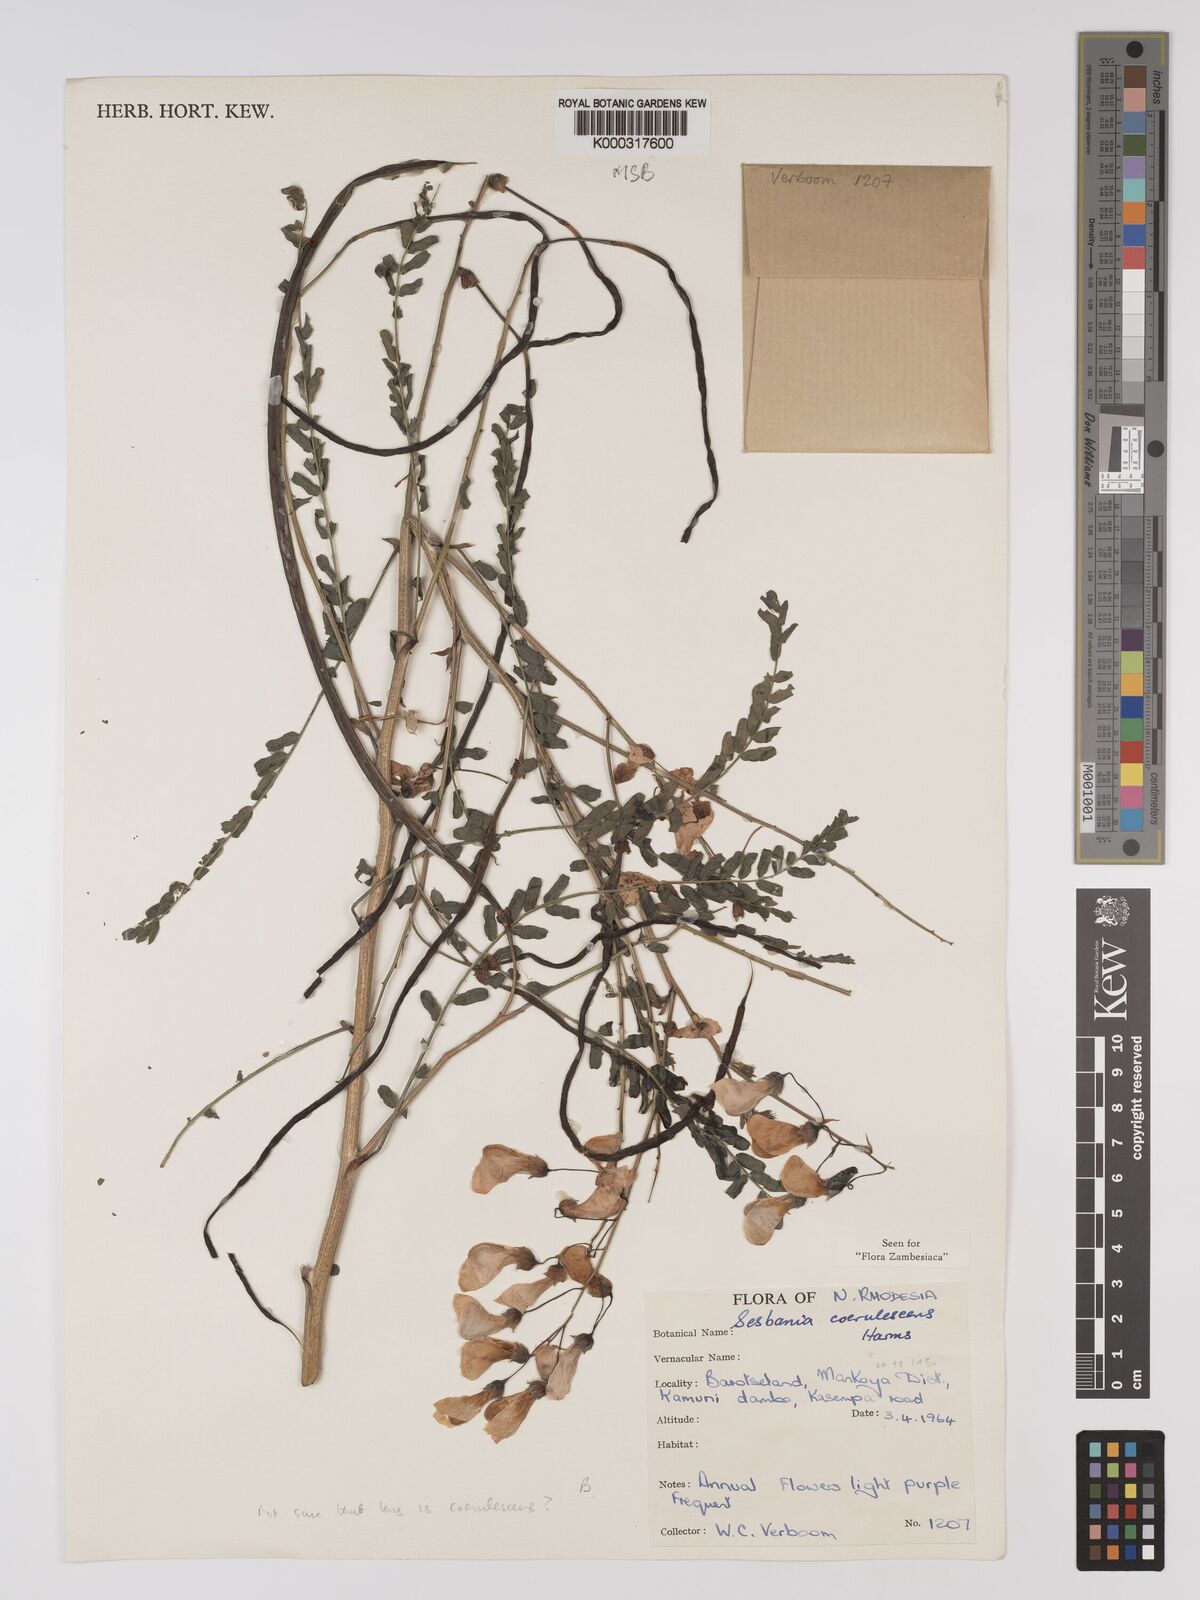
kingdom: Plantae
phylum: Tracheophyta
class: Magnoliopsida
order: Fabales
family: Fabaceae
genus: Sesbania
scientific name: Sesbania coerulescens
